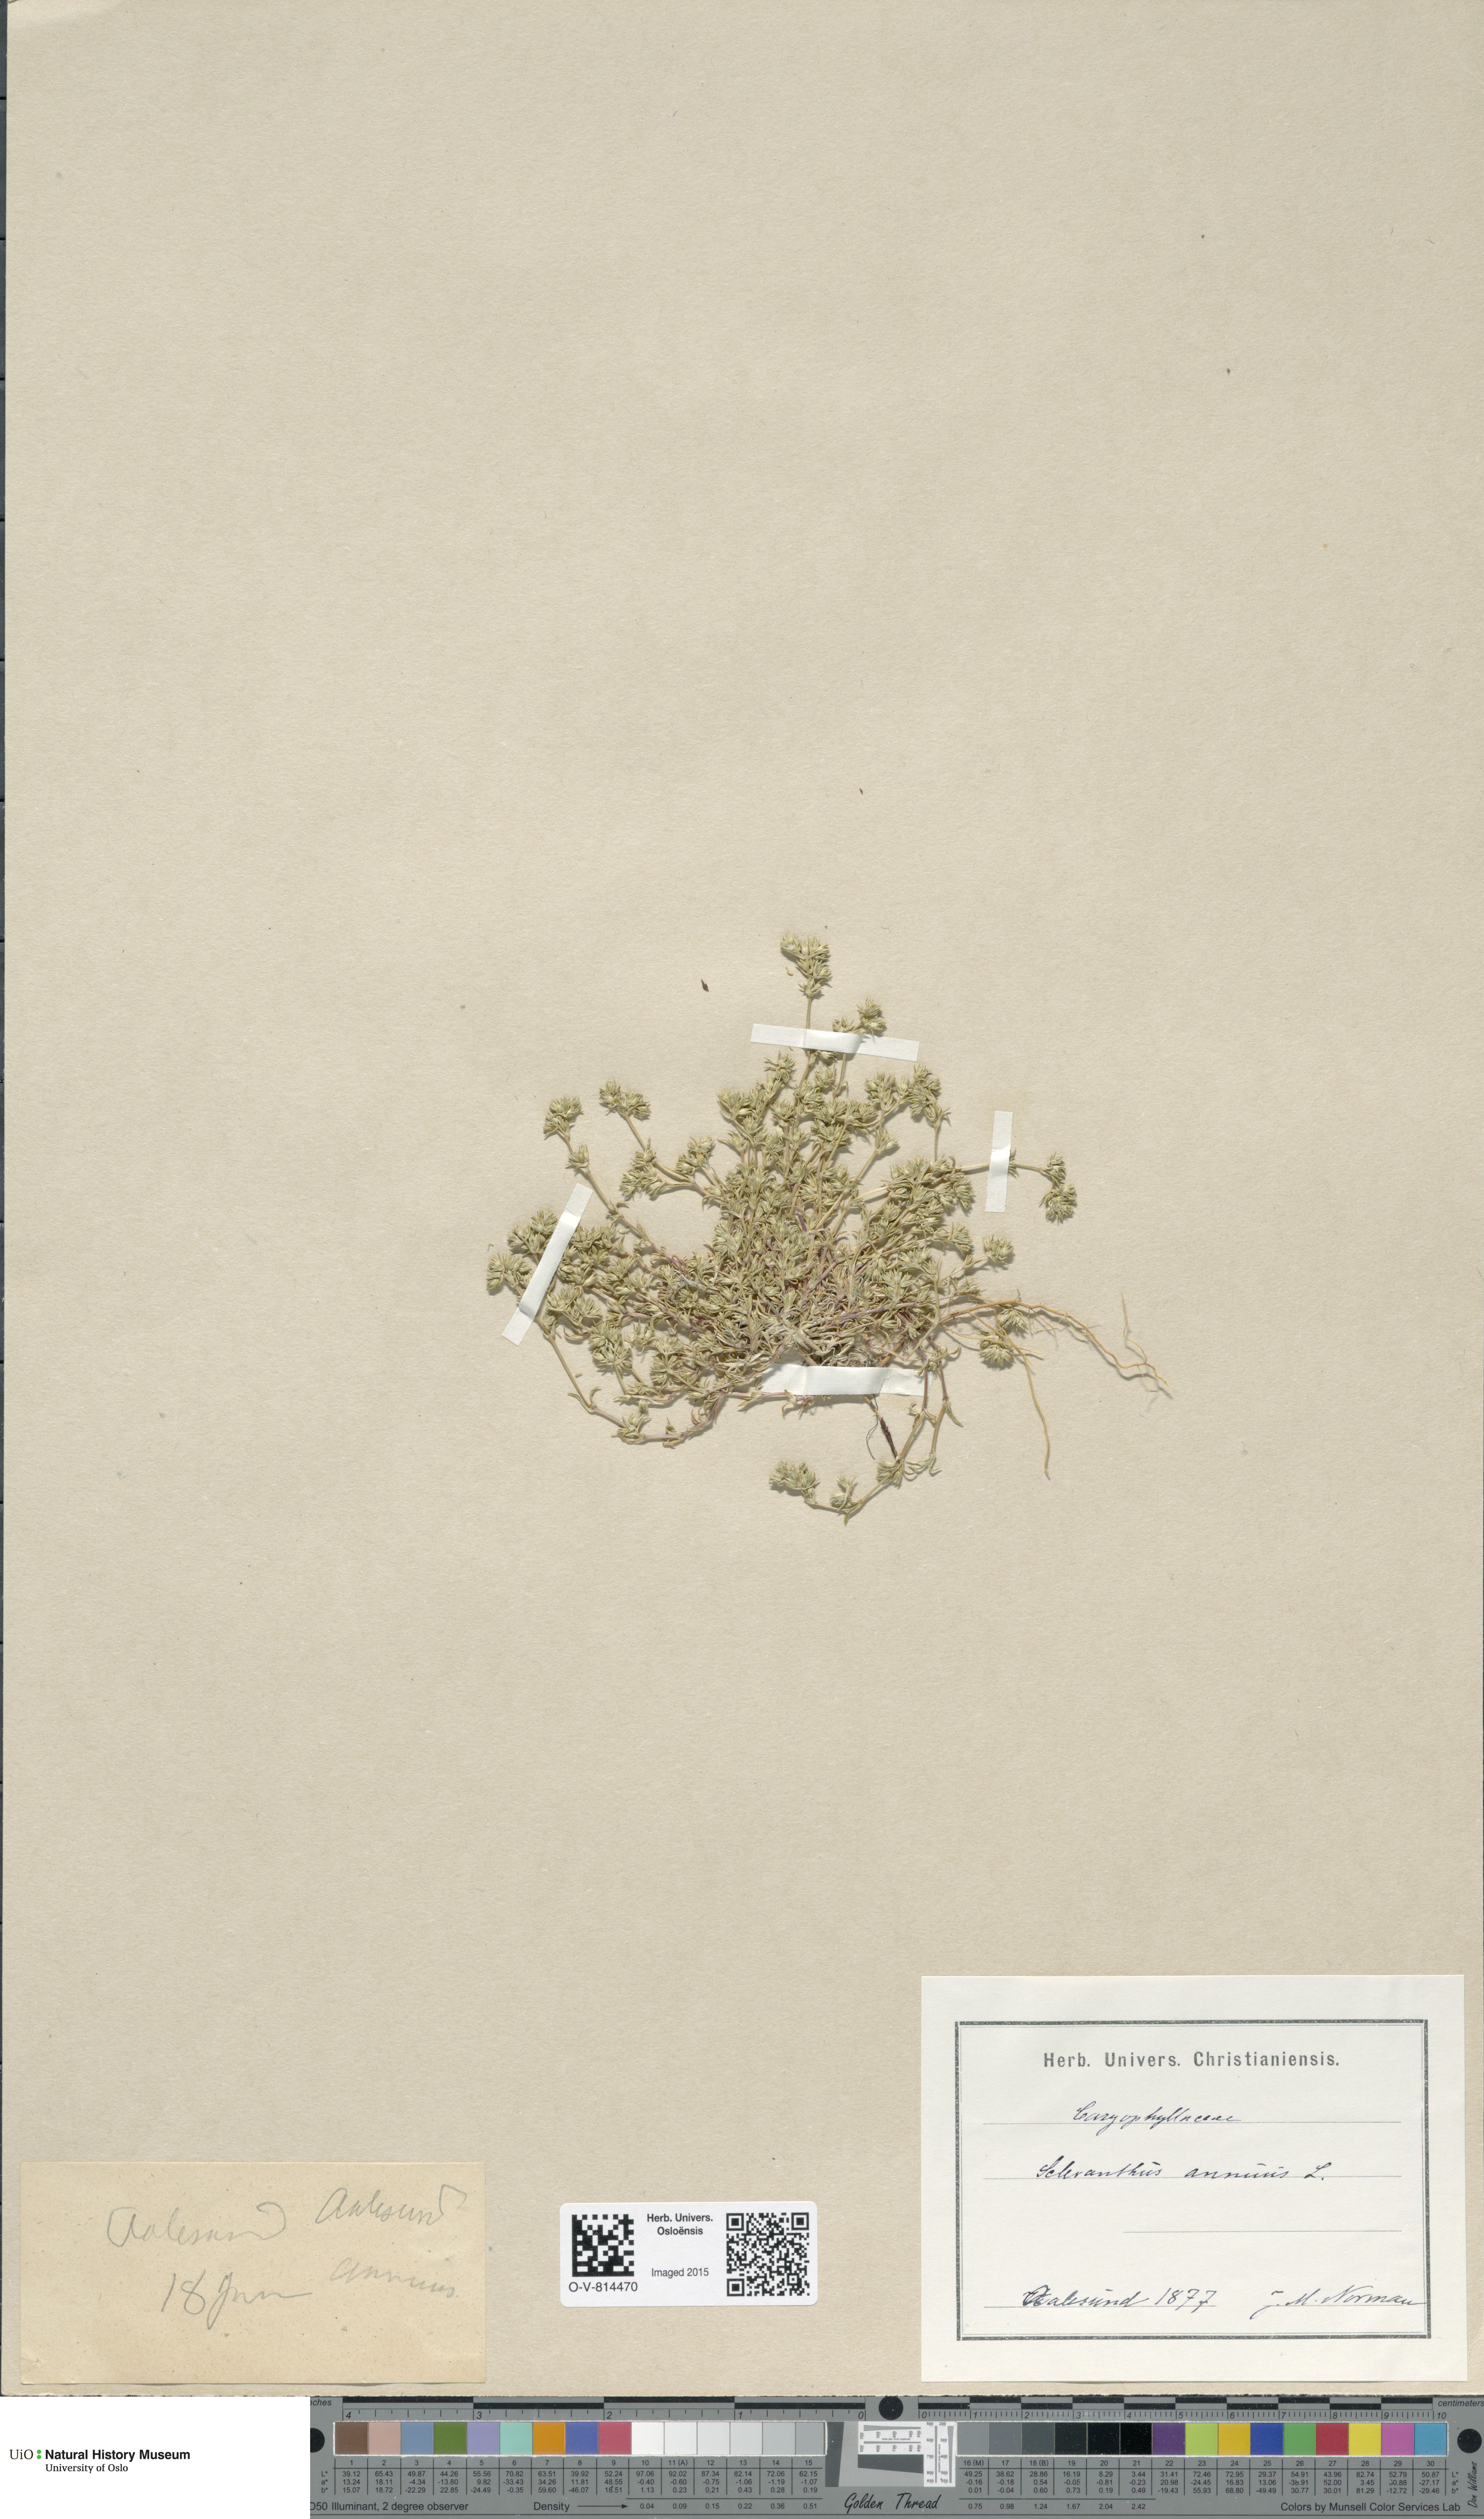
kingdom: Plantae
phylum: Tracheophyta
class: Magnoliopsida
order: Caryophyllales
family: Caryophyllaceae
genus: Scleranthus
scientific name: Scleranthus annuus
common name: Annual knawel
